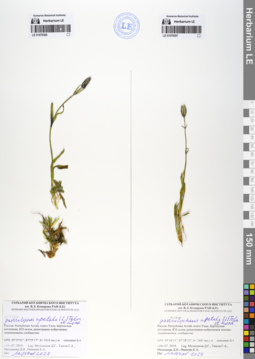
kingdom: Plantae
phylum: Tracheophyta
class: Magnoliopsida
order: Caryophyllales
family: Caryophyllaceae
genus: Silene
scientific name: Silene wahlbergella
